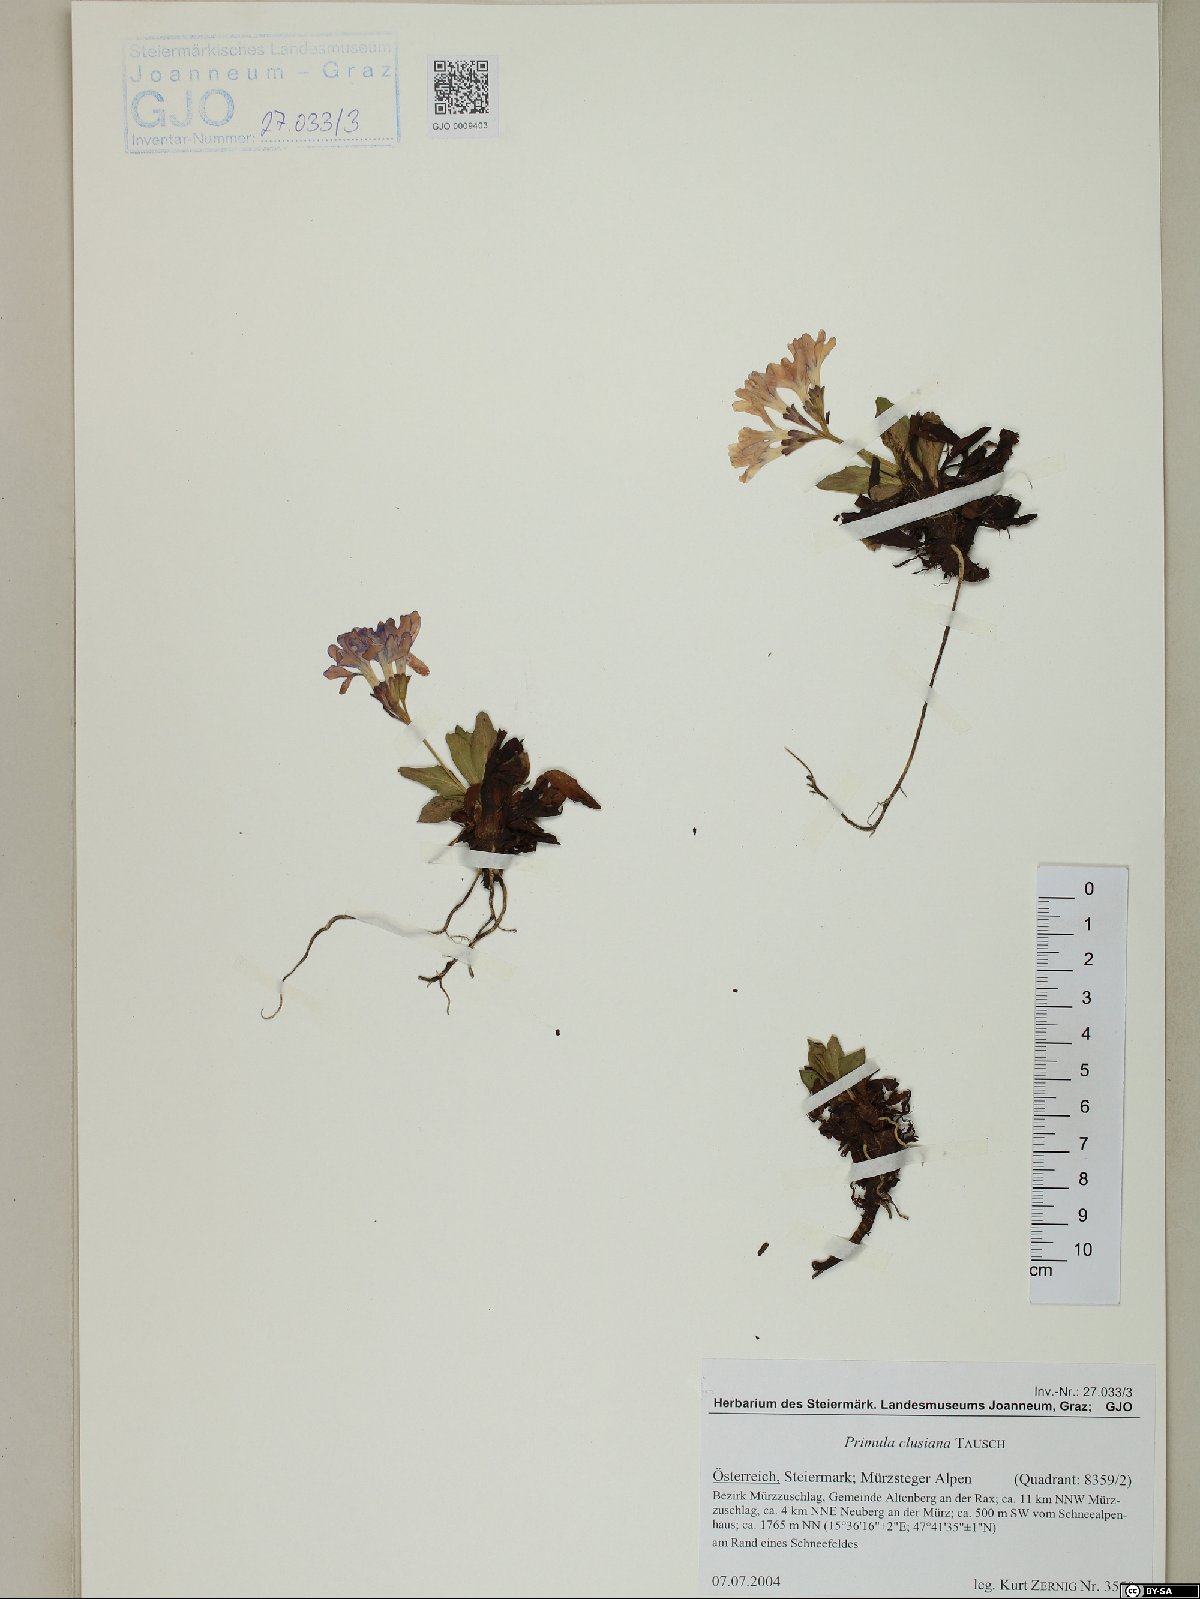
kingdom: Plantae
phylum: Tracheophyta
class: Magnoliopsida
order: Ericales
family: Primulaceae
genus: Primula
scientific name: Primula clusiana
